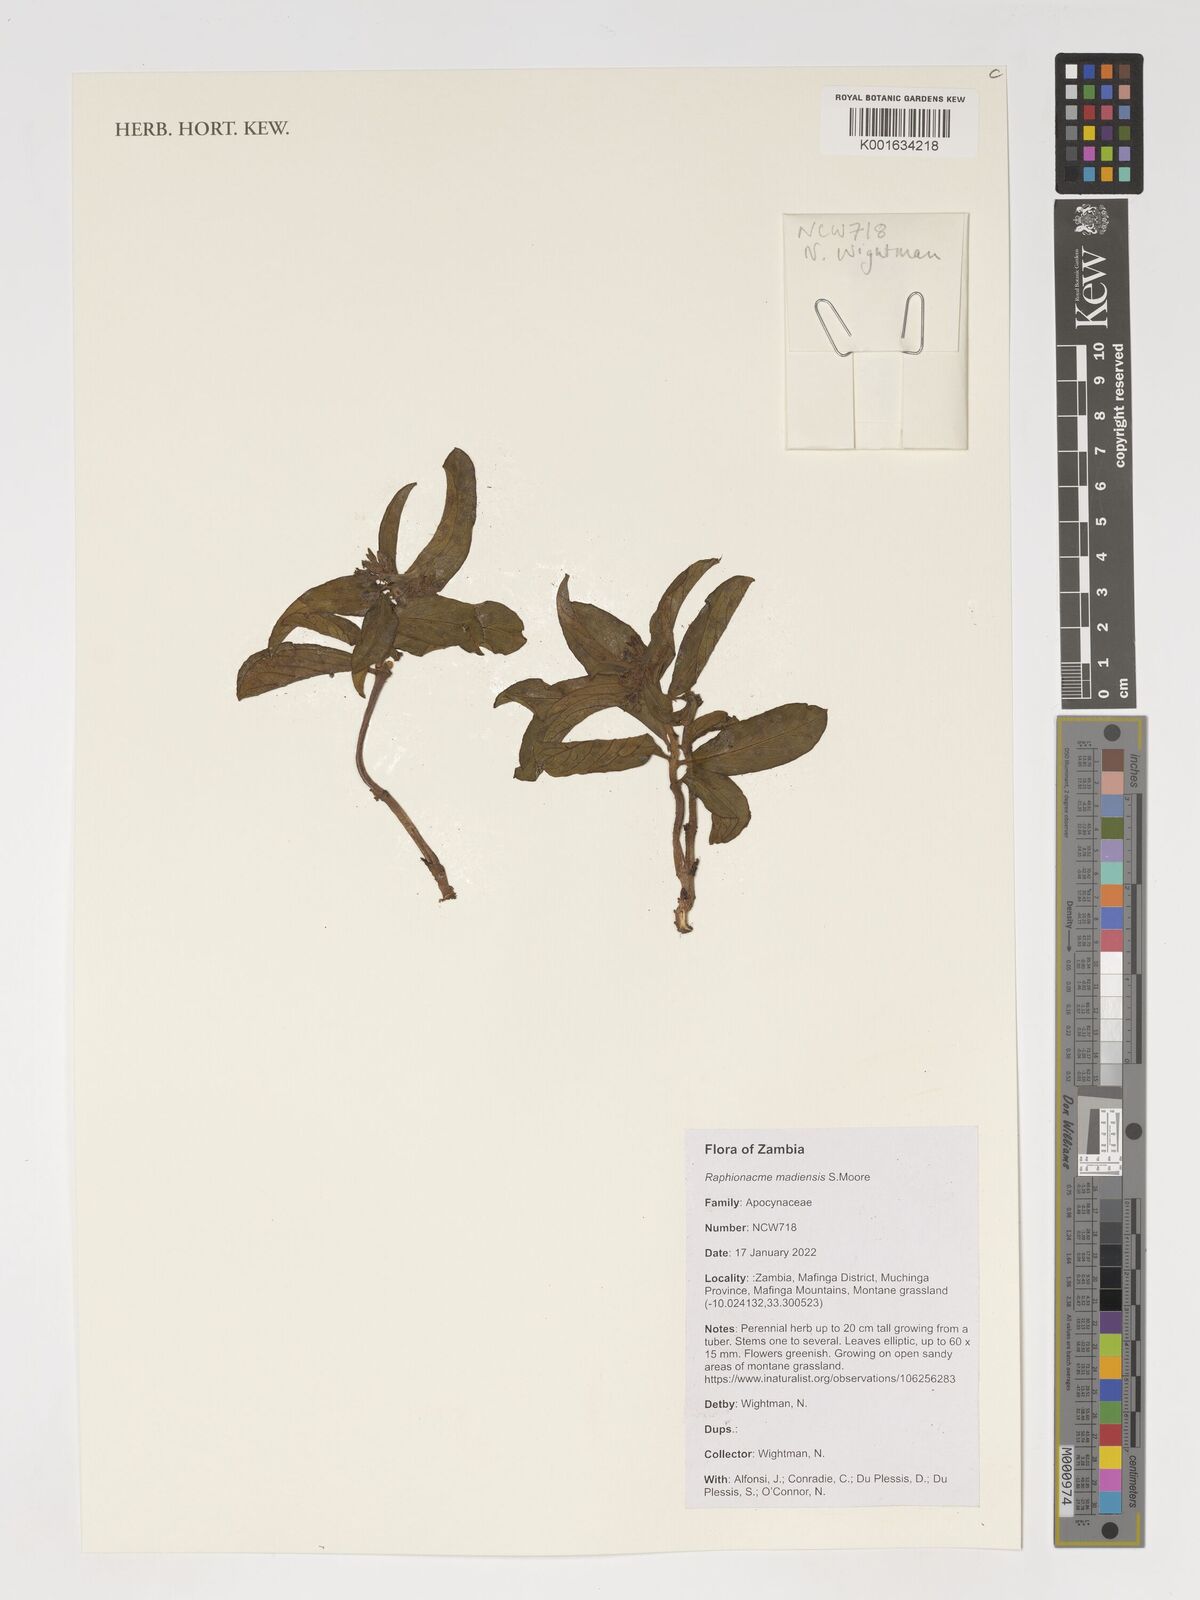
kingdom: Plantae
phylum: Tracheophyta
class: Magnoliopsida
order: Gentianales
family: Apocynaceae
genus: Raphionacme
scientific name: Raphionacme madiensis
